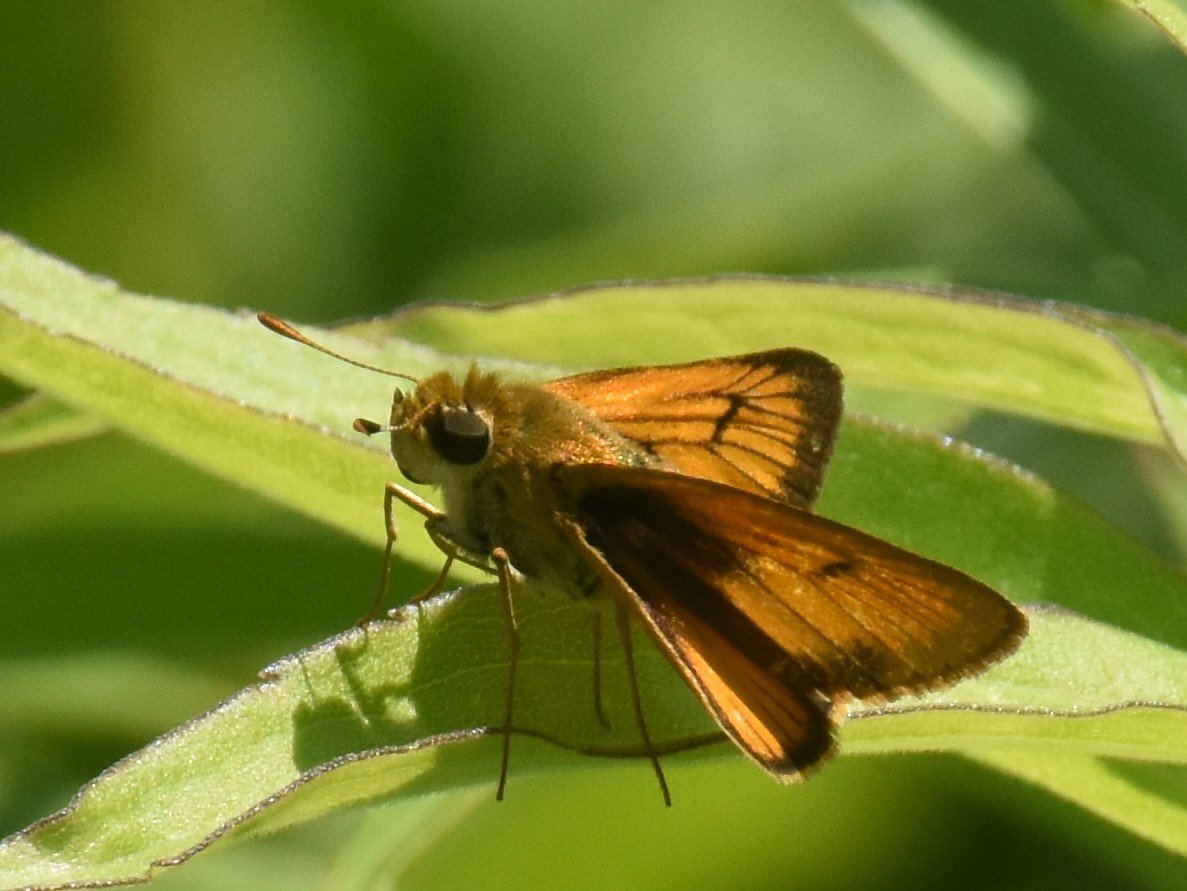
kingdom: Animalia
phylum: Arthropoda
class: Insecta
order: Lepidoptera
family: Hesperiidae
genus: Atrytone
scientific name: Atrytone delaware
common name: Delaware Skipper
